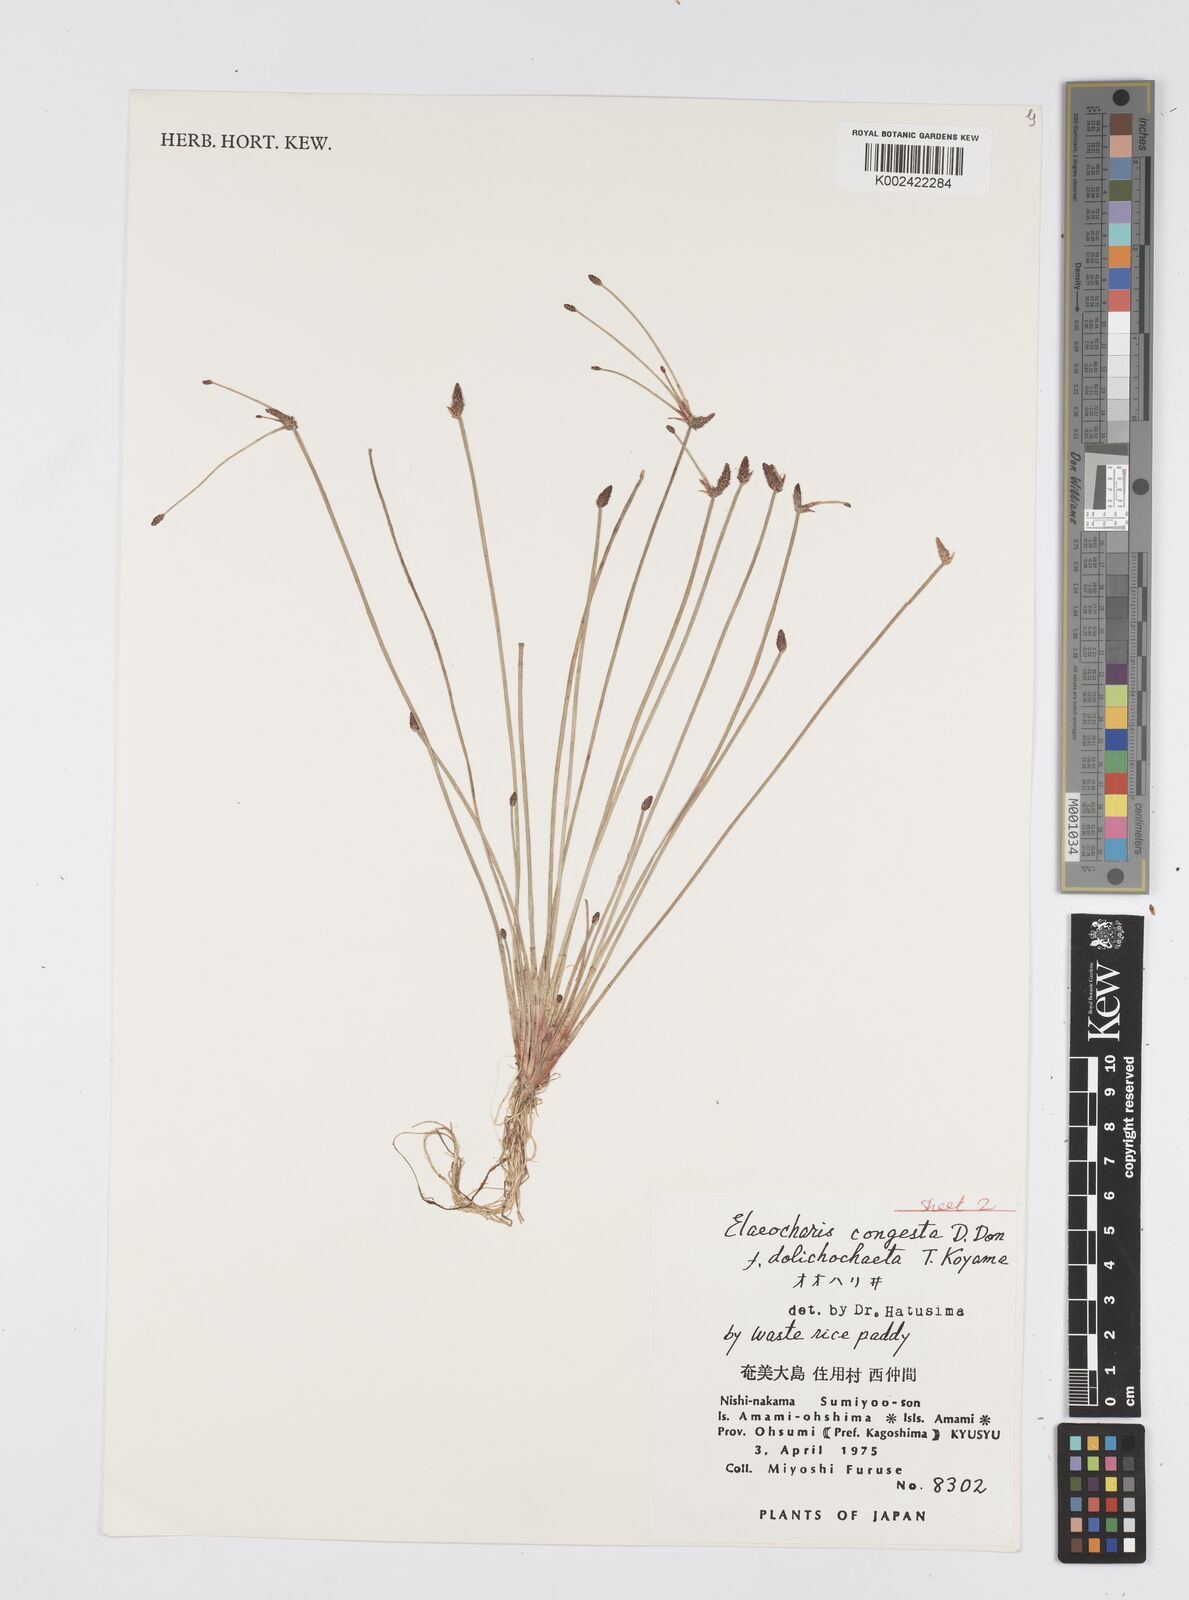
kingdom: Plantae
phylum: Tracheophyta
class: Liliopsida
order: Poales
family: Cyperaceae
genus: Eleocharis
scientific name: Eleocharis congesta
